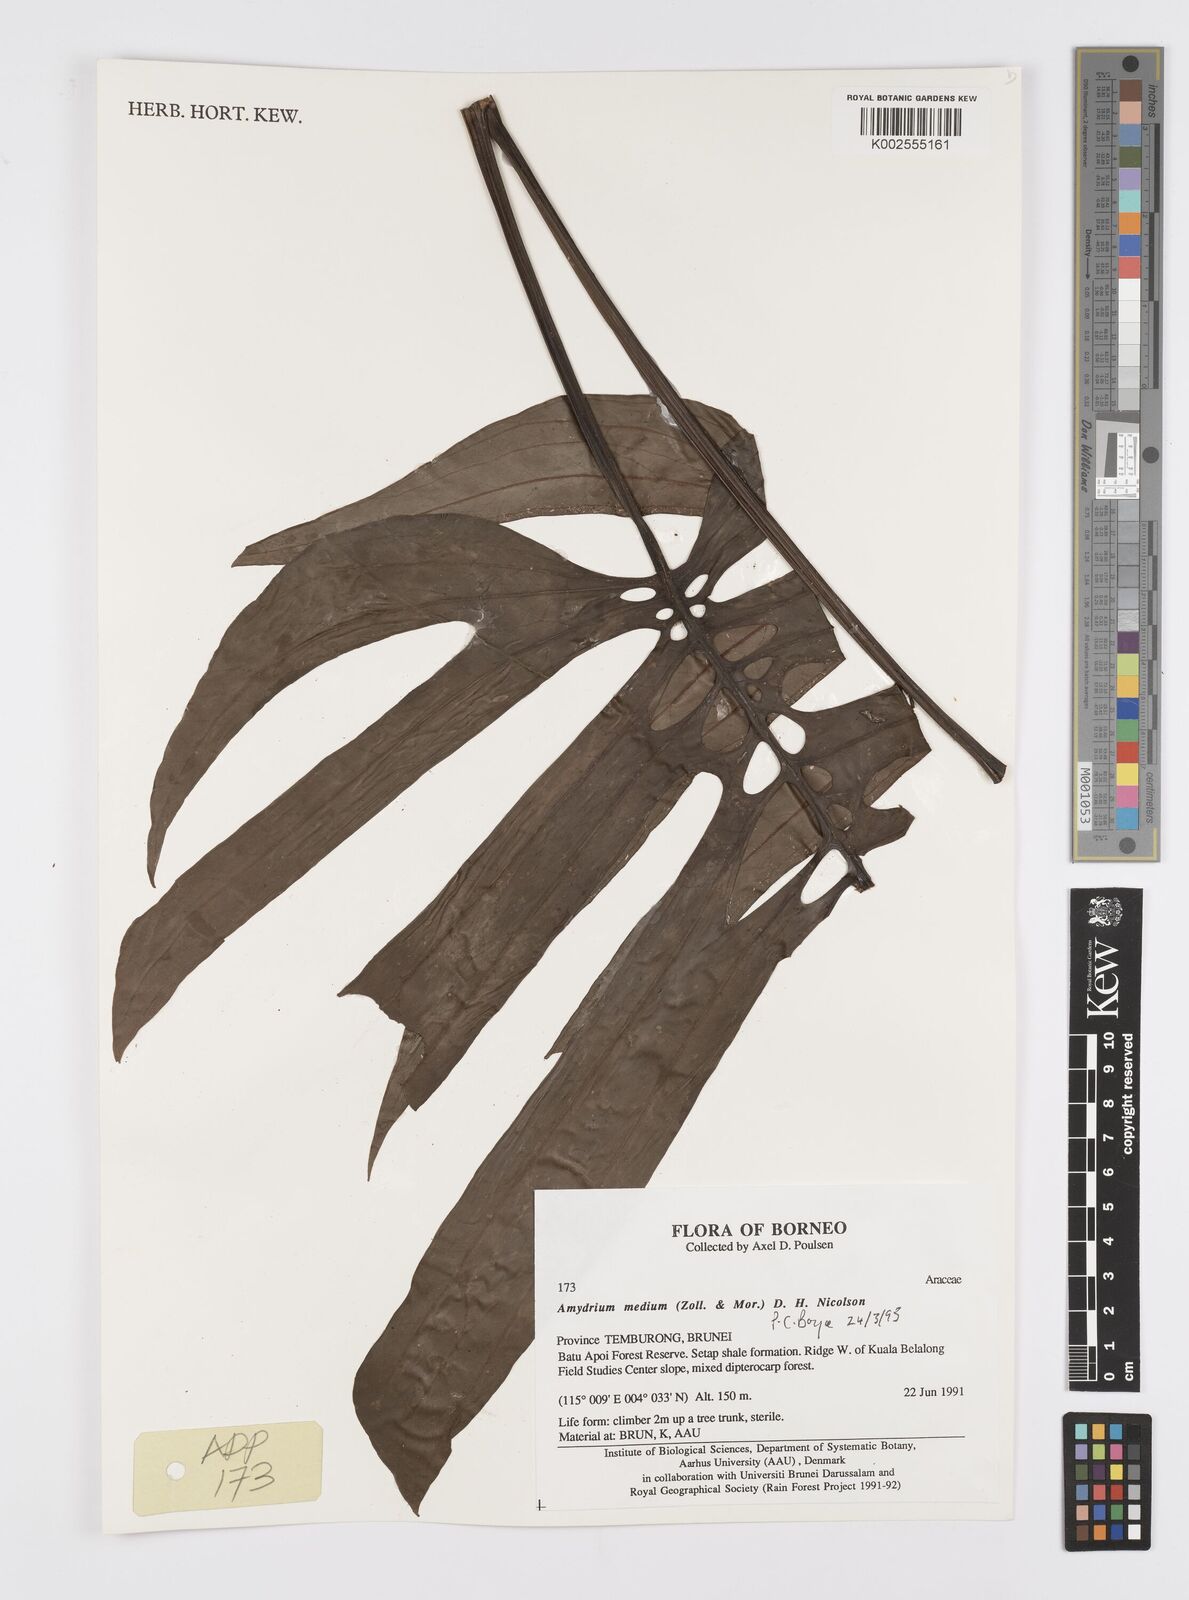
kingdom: Plantae
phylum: Tracheophyta
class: Liliopsida
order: Alismatales
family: Araceae
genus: Amydrium
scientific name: Amydrium medium
